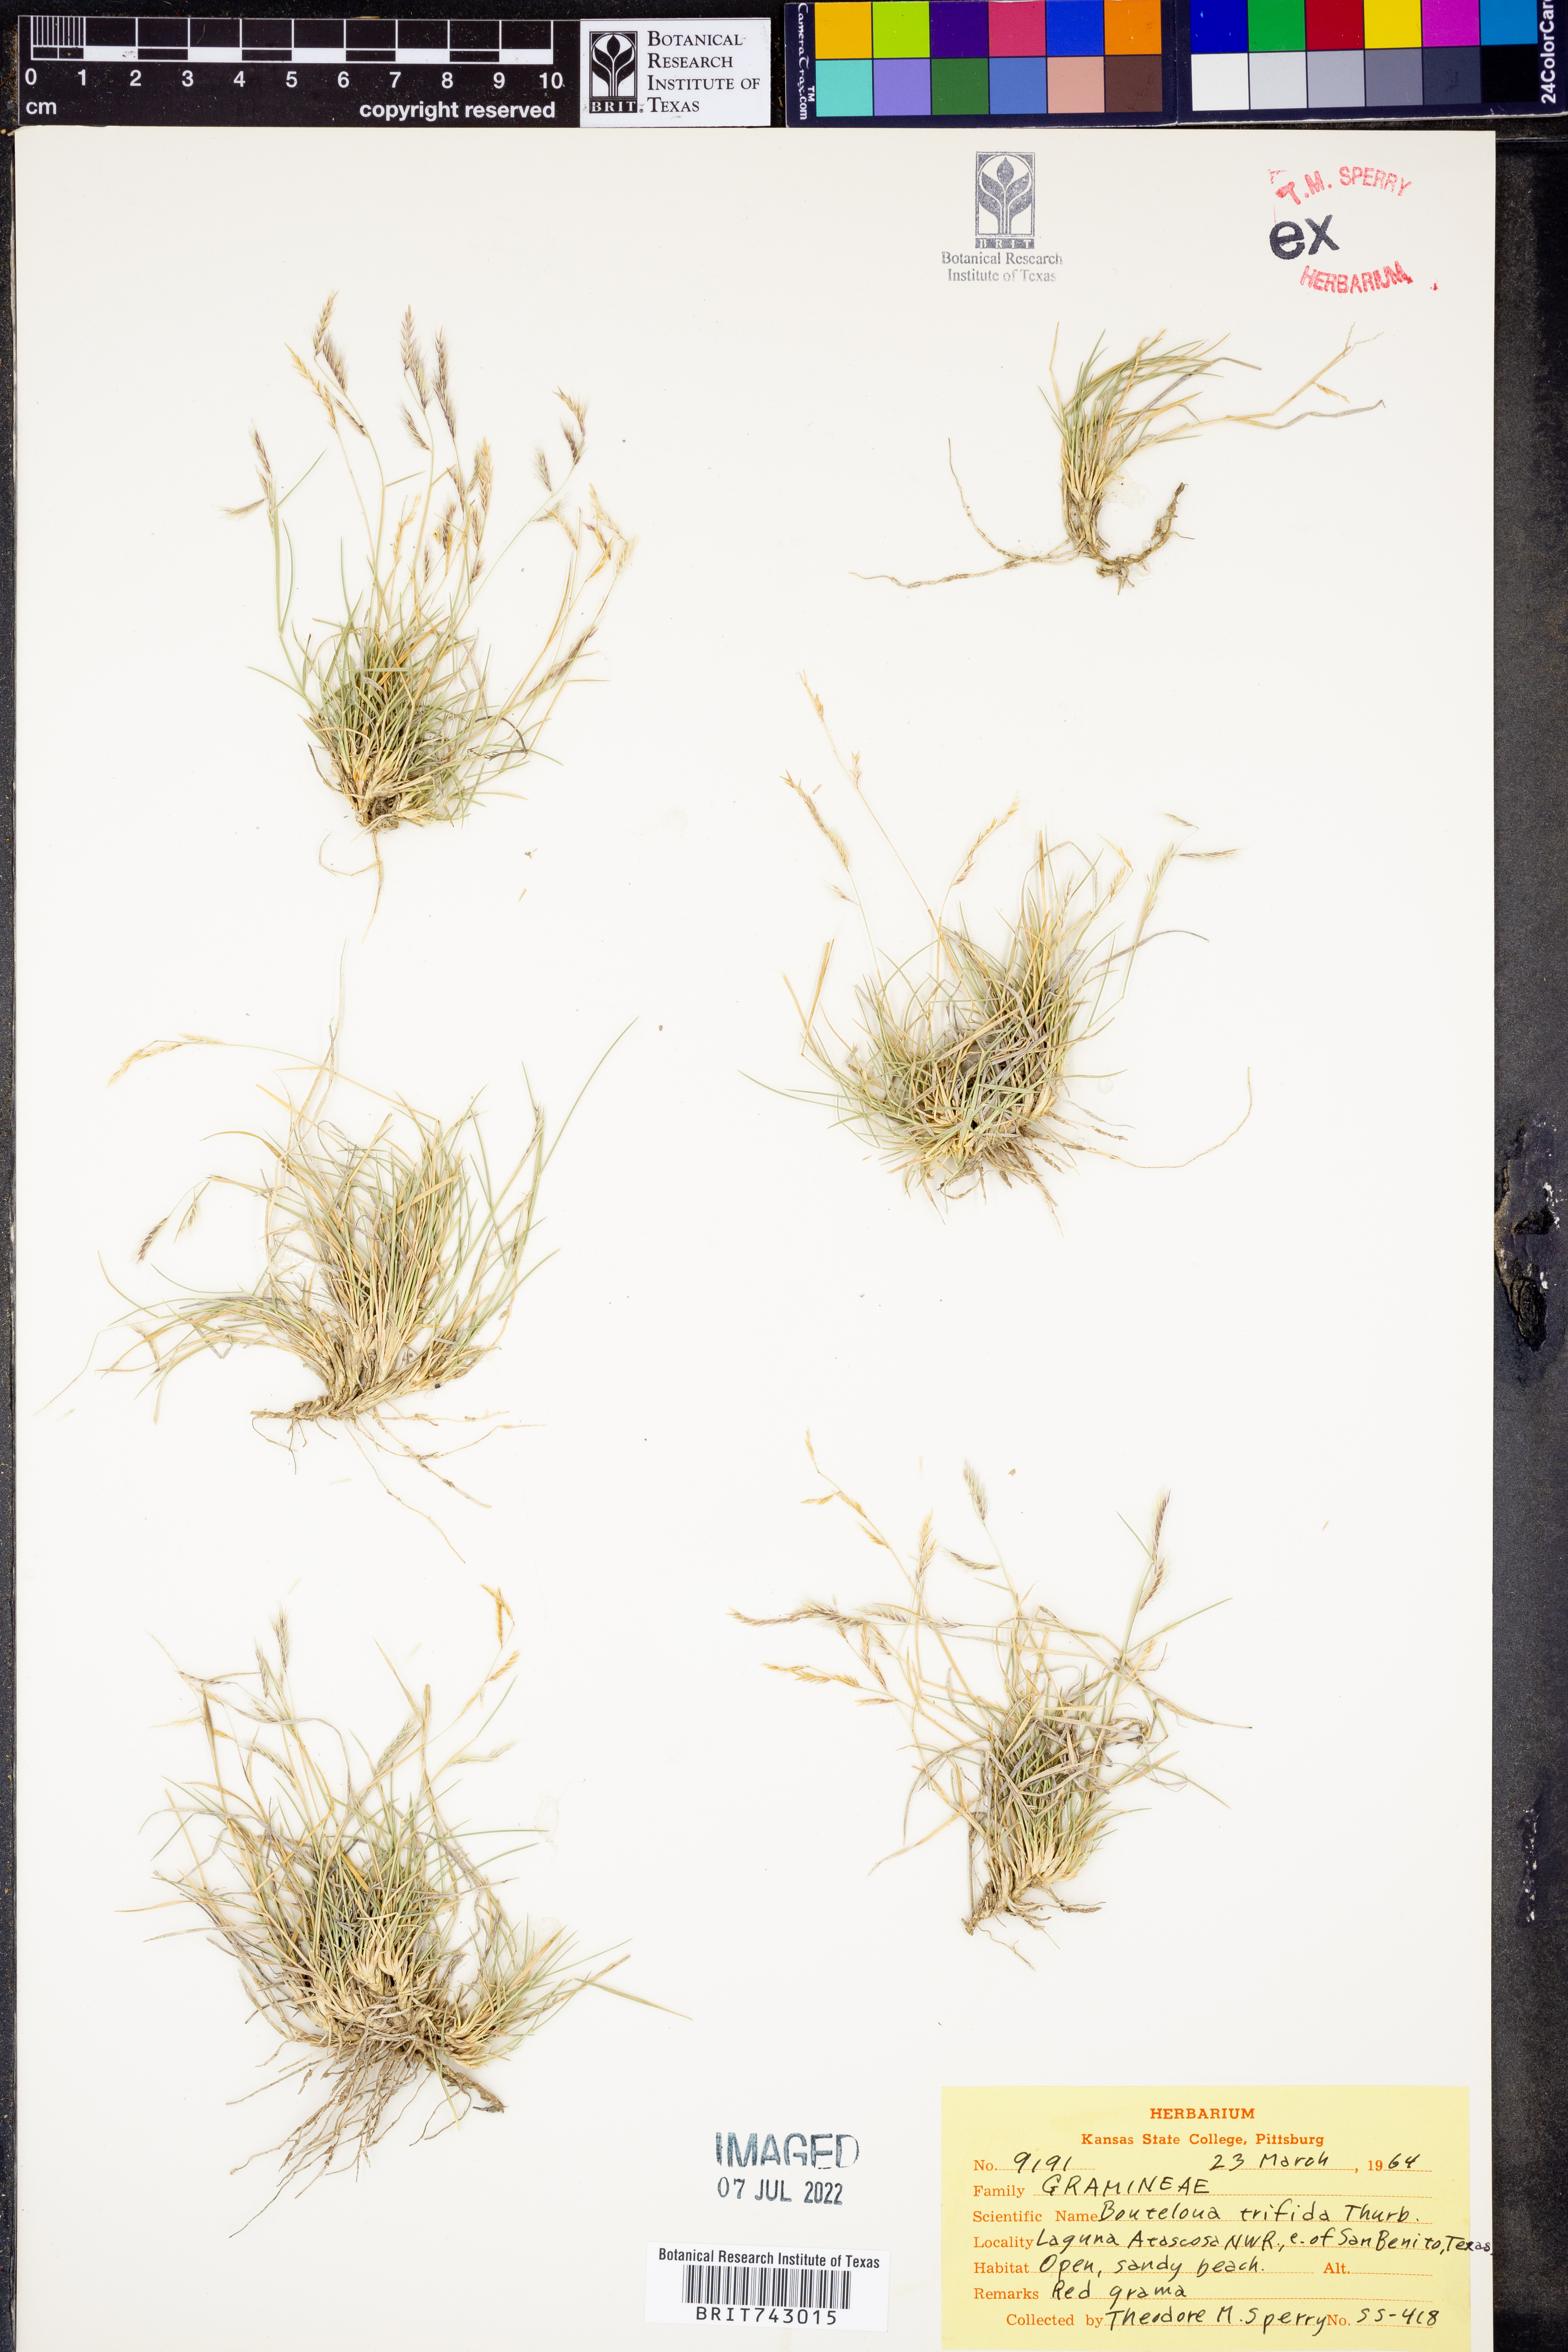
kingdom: Plantae
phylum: Tracheophyta
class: Liliopsida
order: Poales
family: Poaceae
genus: Bouteloua
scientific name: Bouteloua trifida
